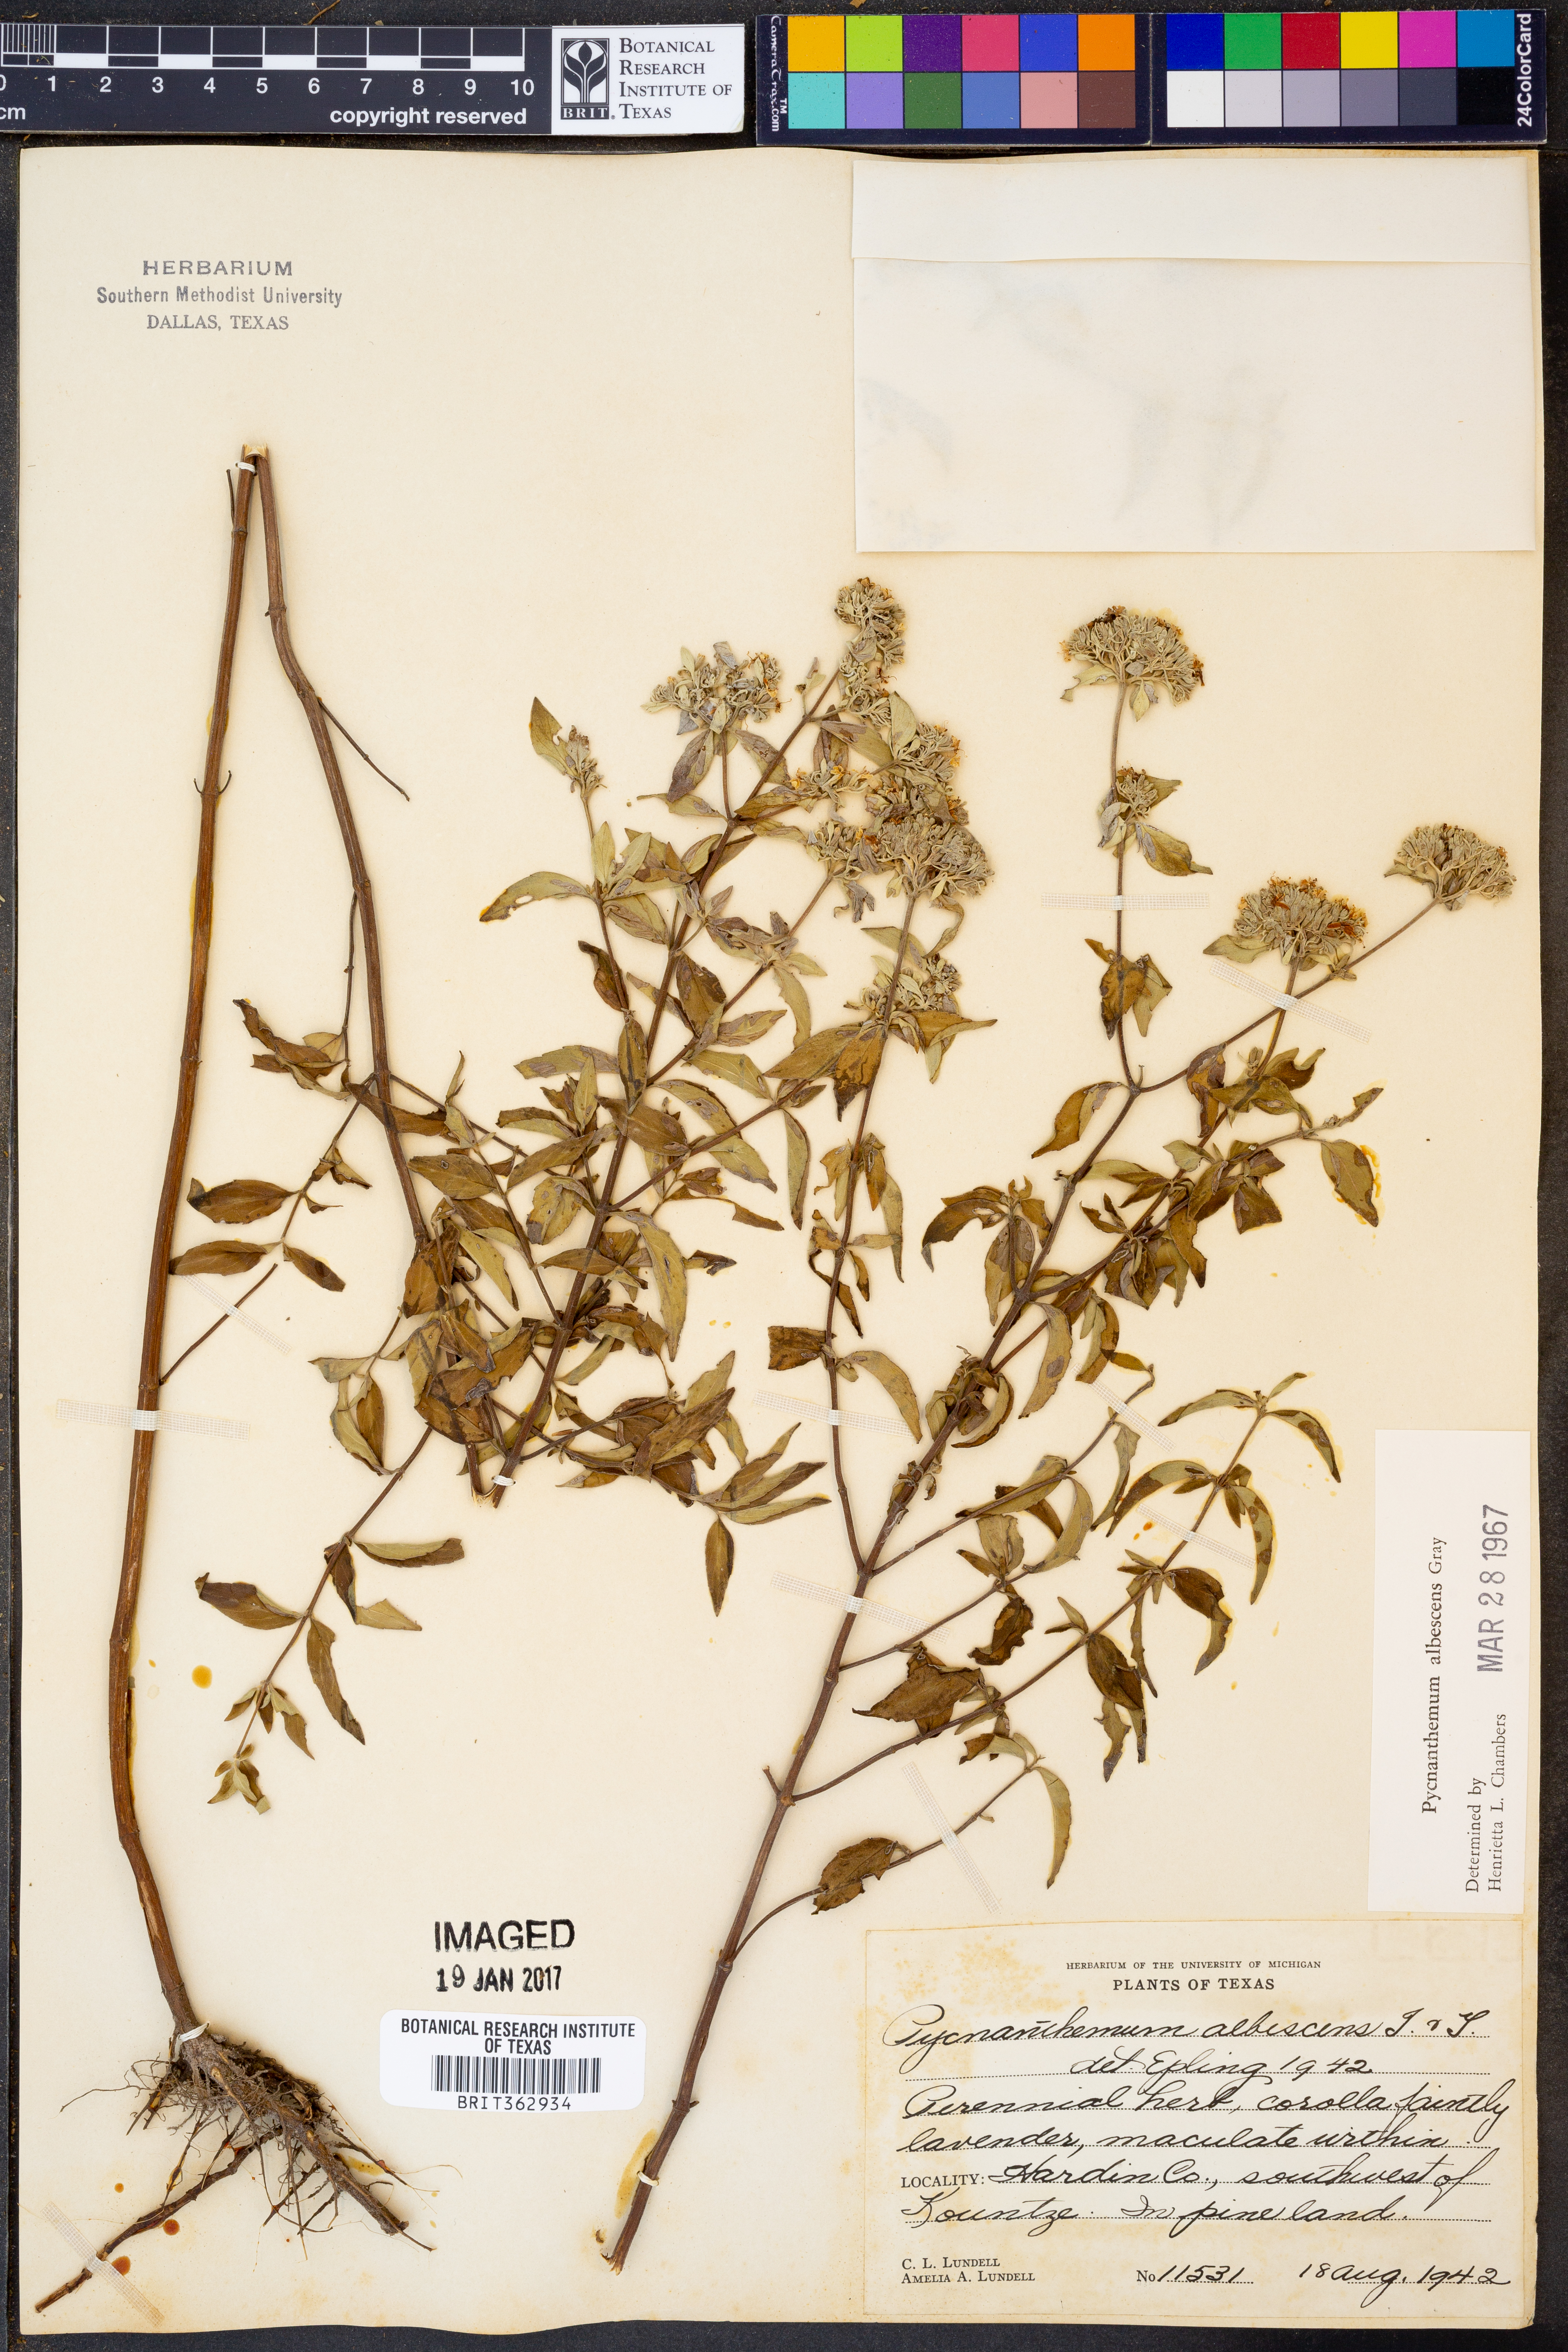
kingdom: Plantae
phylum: Tracheophyta
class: Magnoliopsida
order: Lamiales
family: Lamiaceae
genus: Pycnanthemum
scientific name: Pycnanthemum albescens
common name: White-leaf mountain-mint
